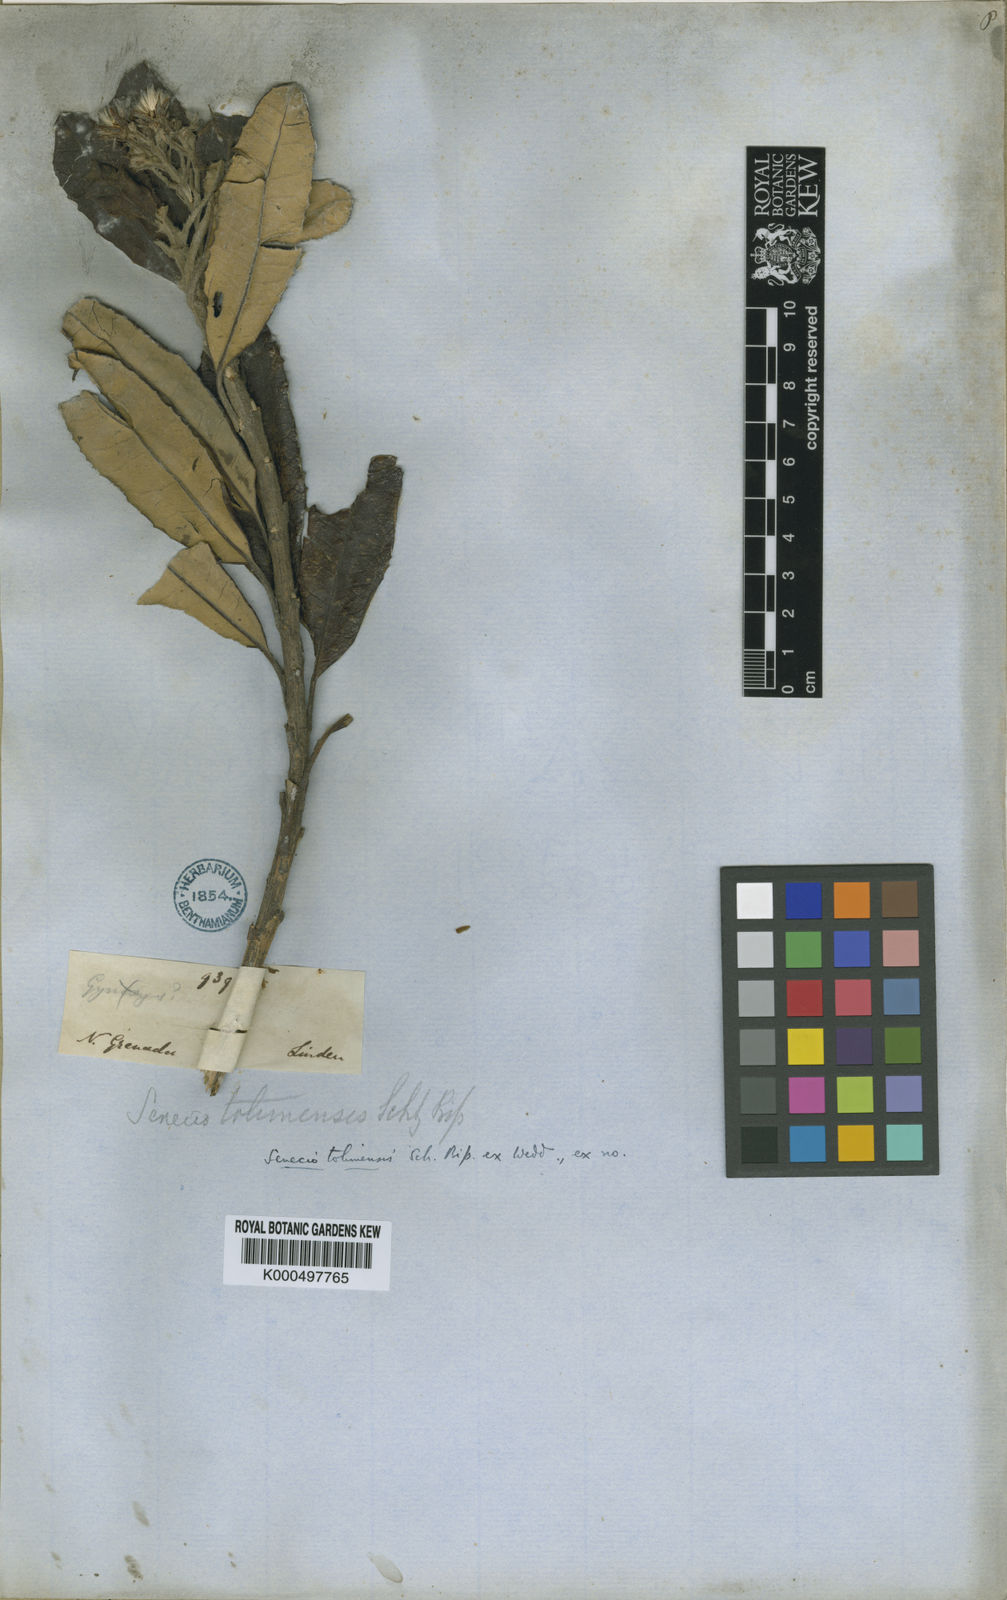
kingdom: Plantae
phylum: Tracheophyta
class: Magnoliopsida
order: Asterales
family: Asteraceae
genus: Monticalia
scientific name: Monticalia tolimensis
